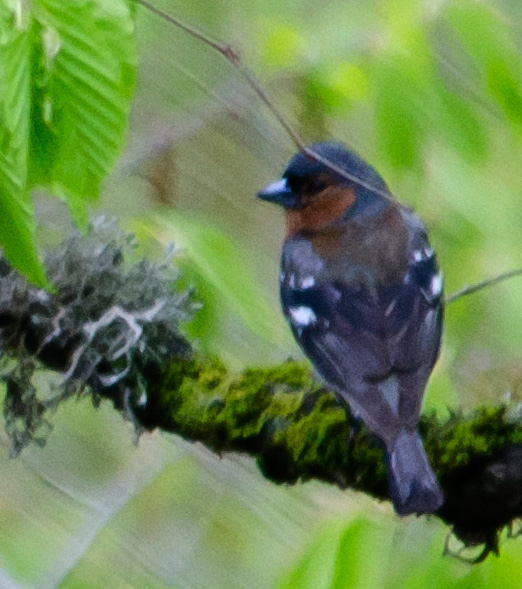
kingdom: Animalia
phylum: Chordata
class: Aves
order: Passeriformes
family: Fringillidae
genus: Fringilla
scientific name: Fringilla coelebs
